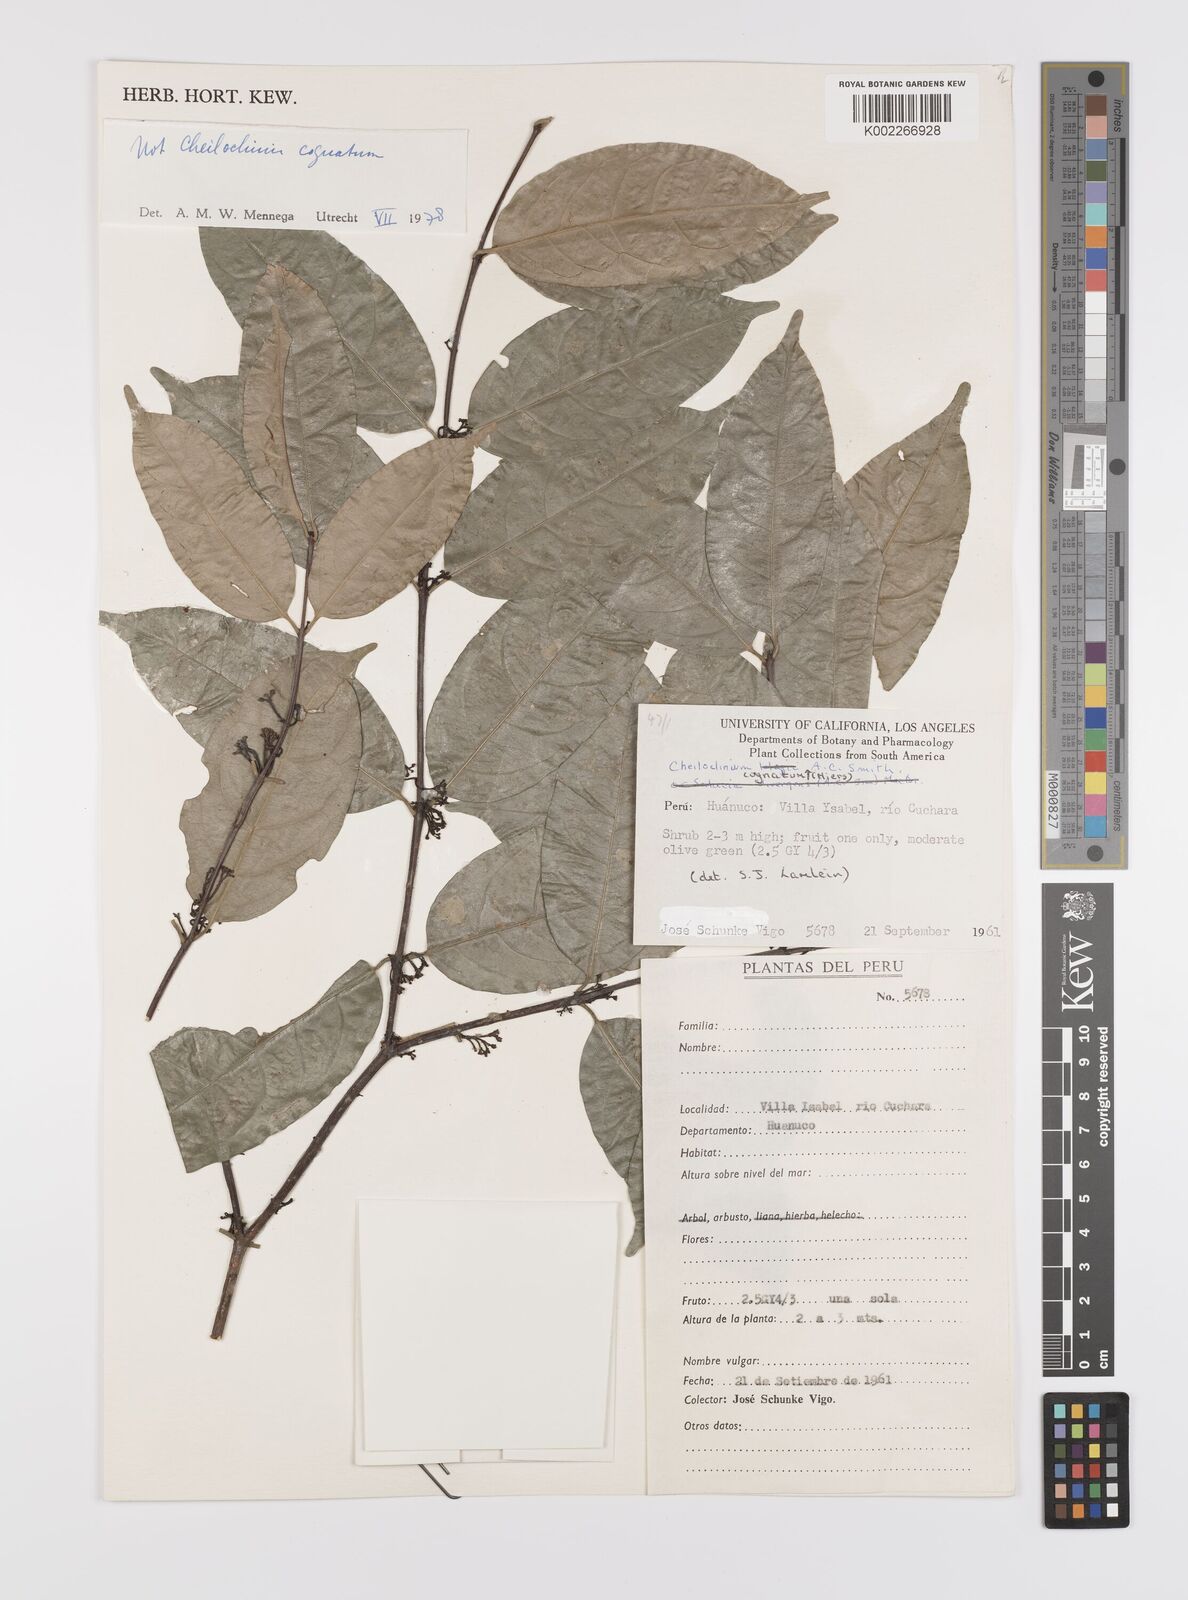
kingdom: Plantae
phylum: Tracheophyta
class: Magnoliopsida
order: Celastrales
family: Celastraceae
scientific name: Celastraceae
